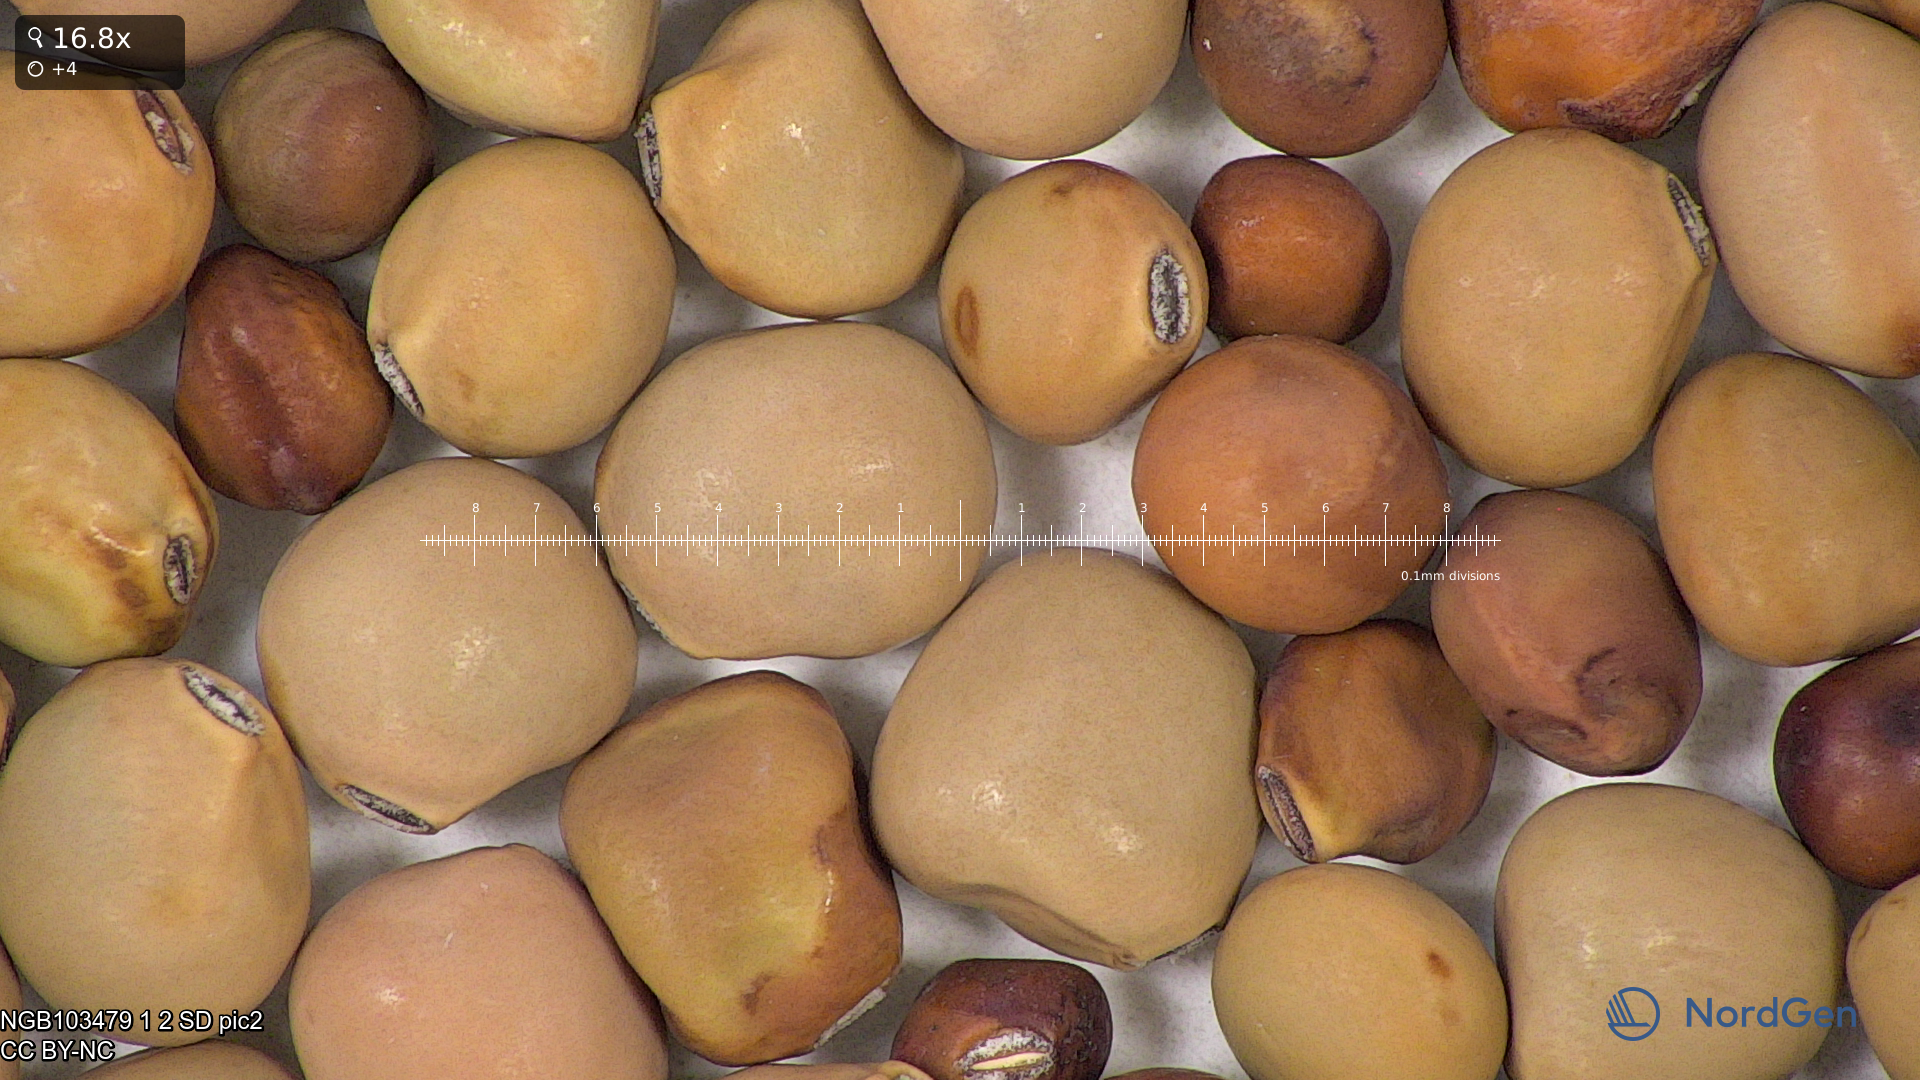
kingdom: Plantae
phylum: Tracheophyta
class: Magnoliopsida
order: Fabales
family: Fabaceae
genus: Lathyrus
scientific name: Lathyrus oleraceus
